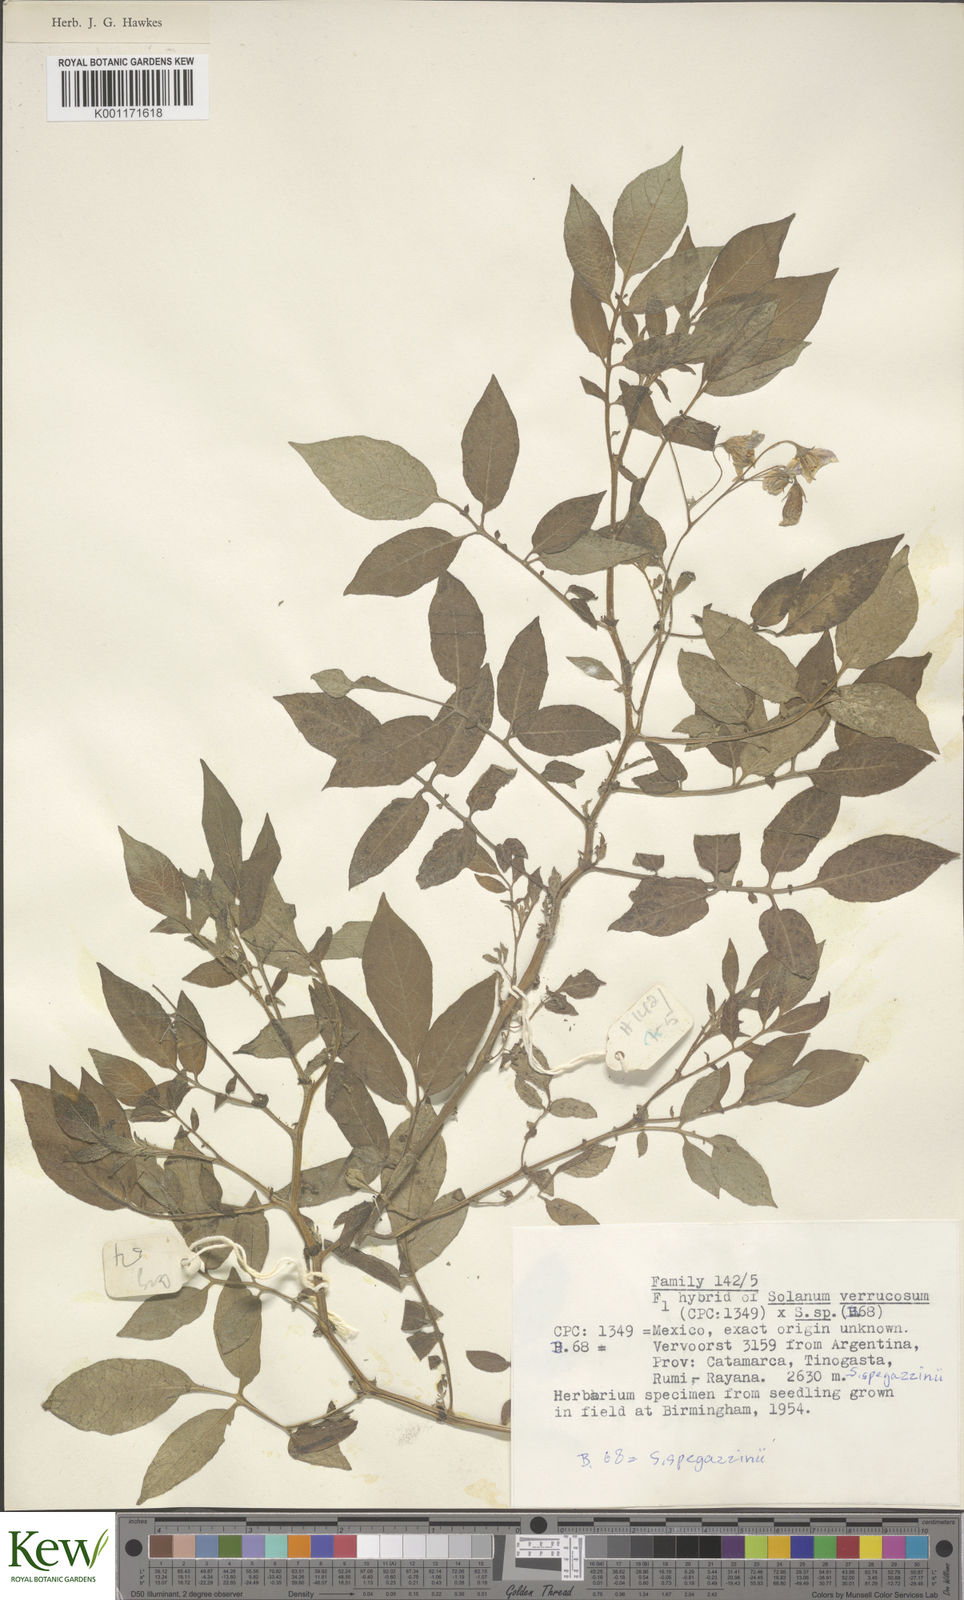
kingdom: Plantae
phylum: Tracheophyta
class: Magnoliopsida
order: Solanales
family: Solanaceae
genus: Solanum
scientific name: Solanum verrucosum
